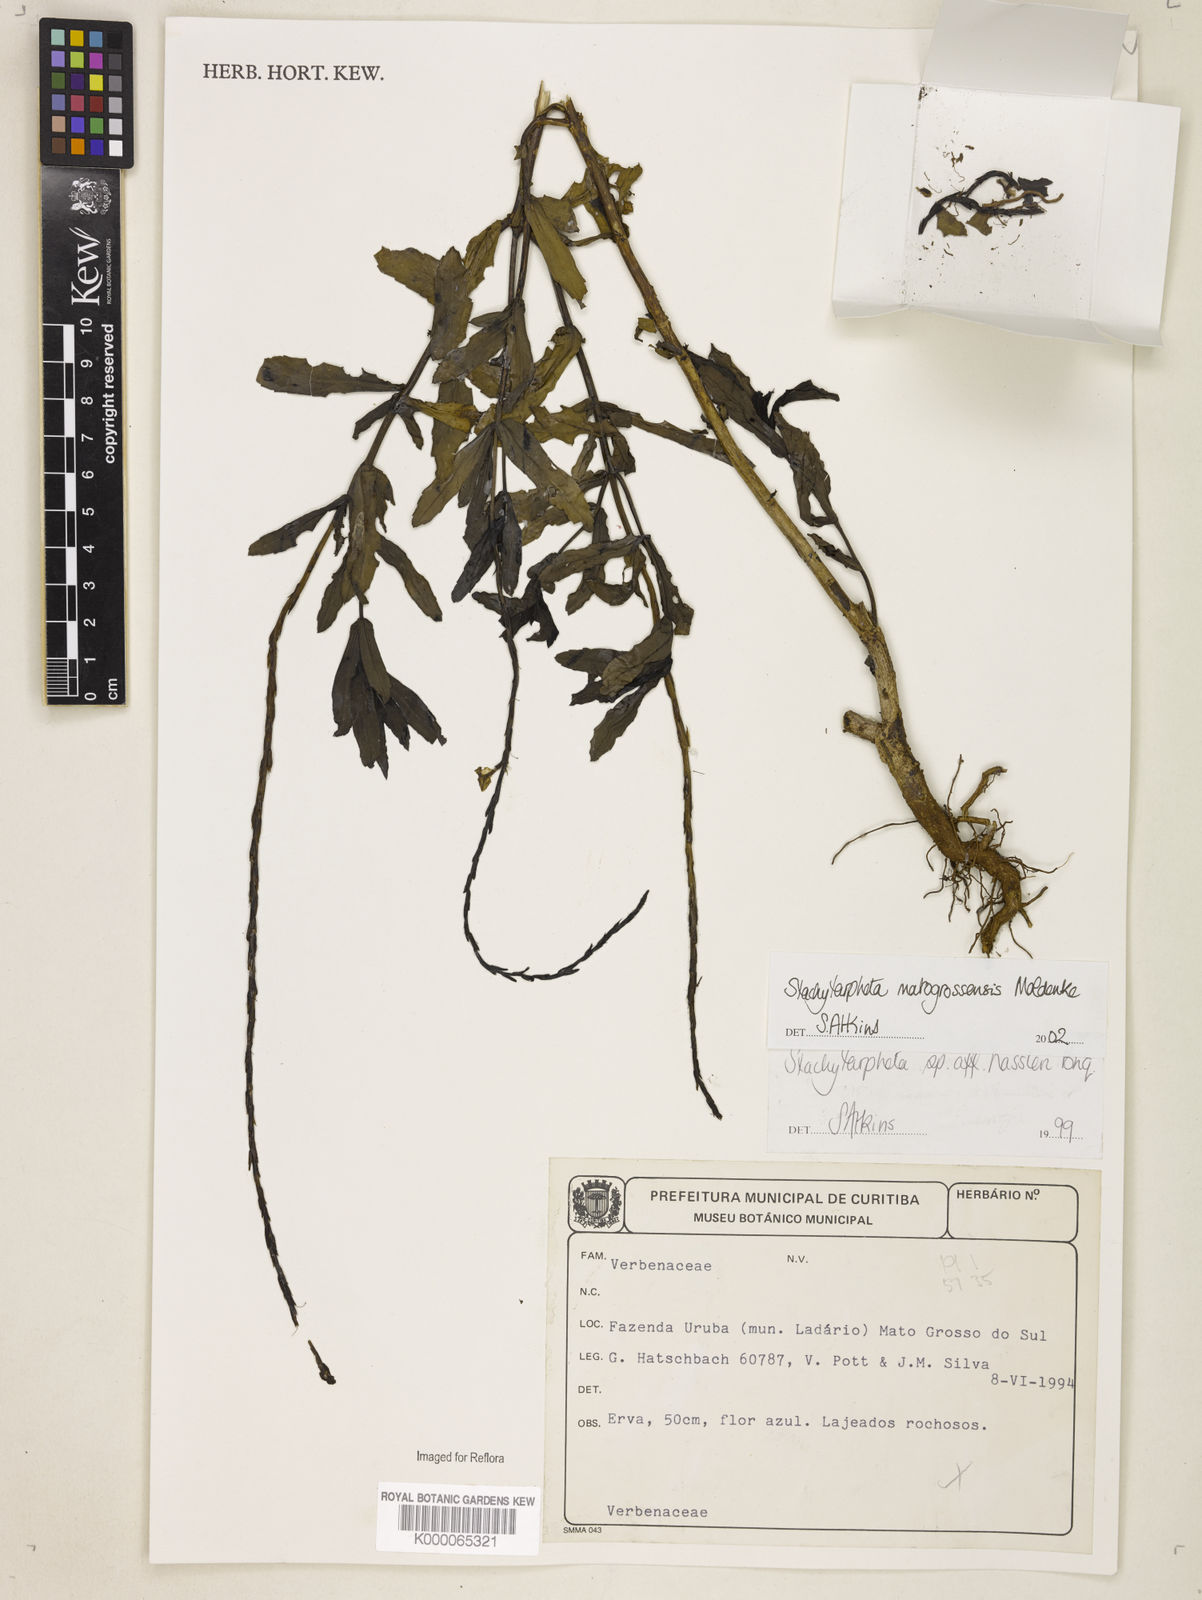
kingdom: Plantae
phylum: Tracheophyta
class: Magnoliopsida
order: Lamiales
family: Verbenaceae
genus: Stachytarpheta
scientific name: Stachytarpheta hassleri
